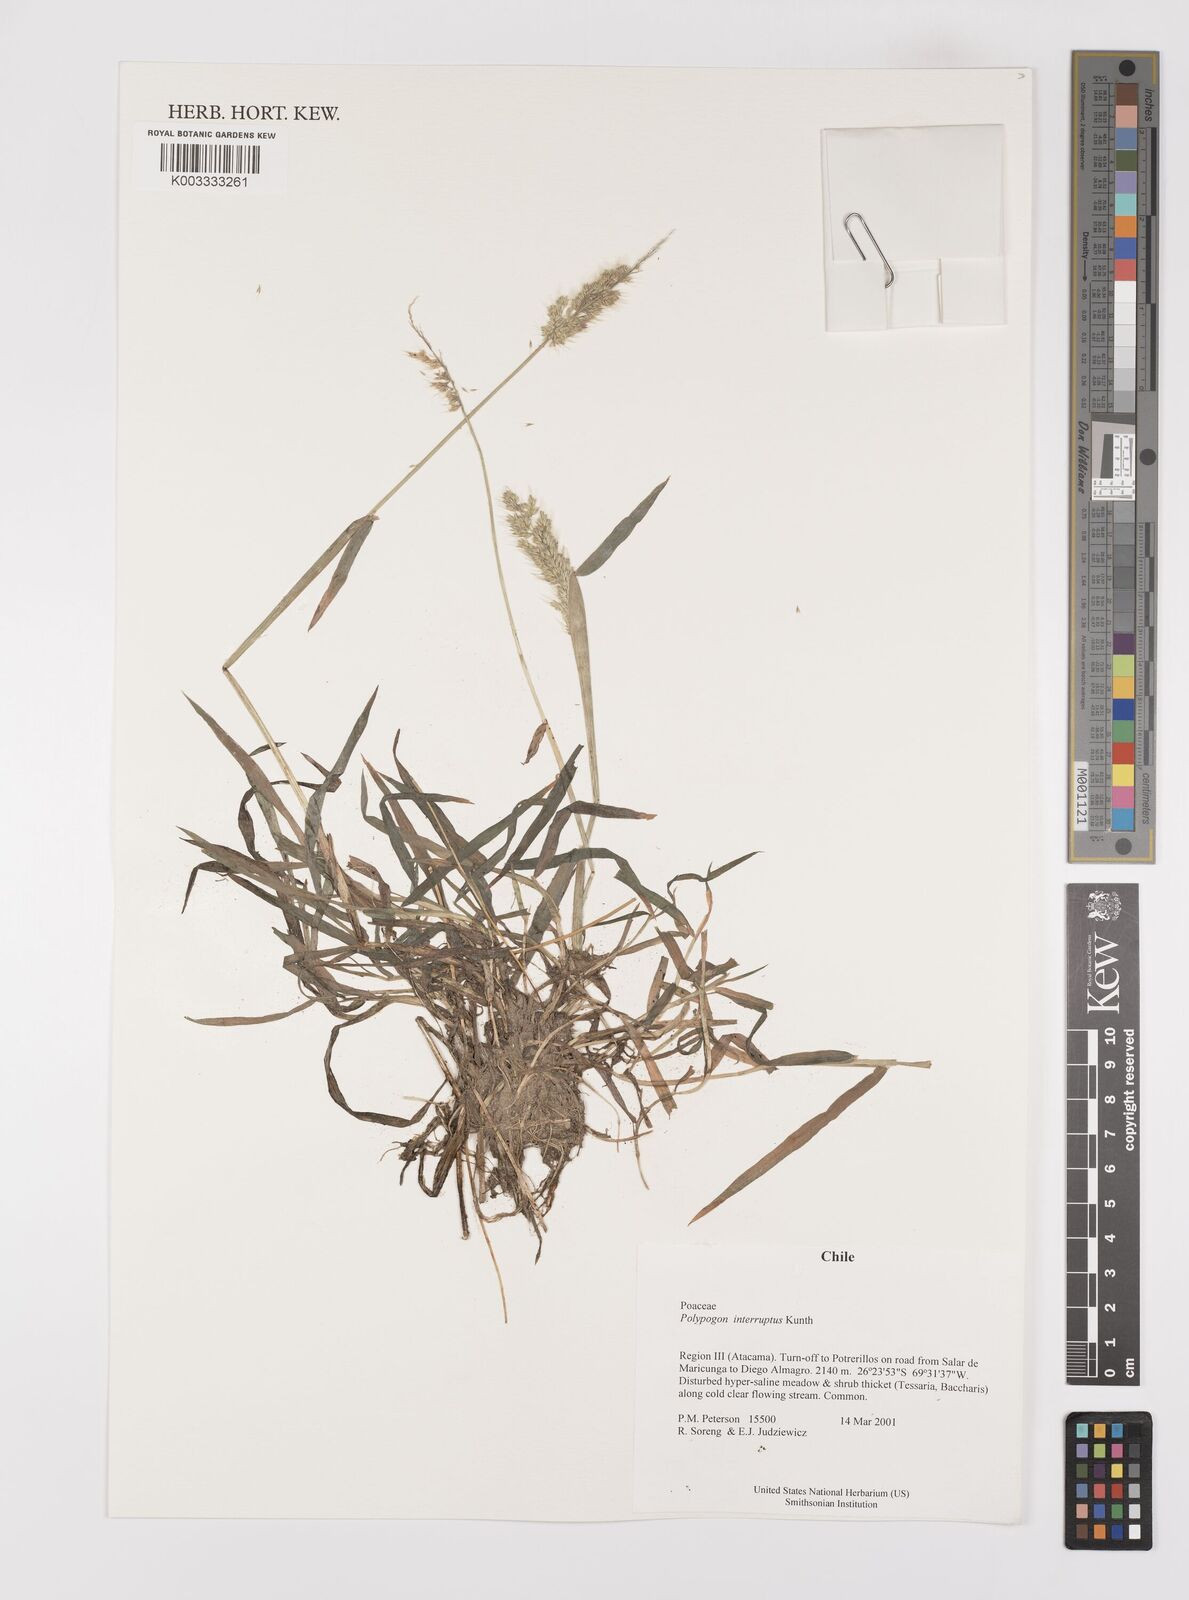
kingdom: Plantae
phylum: Tracheophyta
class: Liliopsida
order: Poales
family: Poaceae
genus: Polypogon
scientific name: Polypogon interruptus
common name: Ditch polypogon
